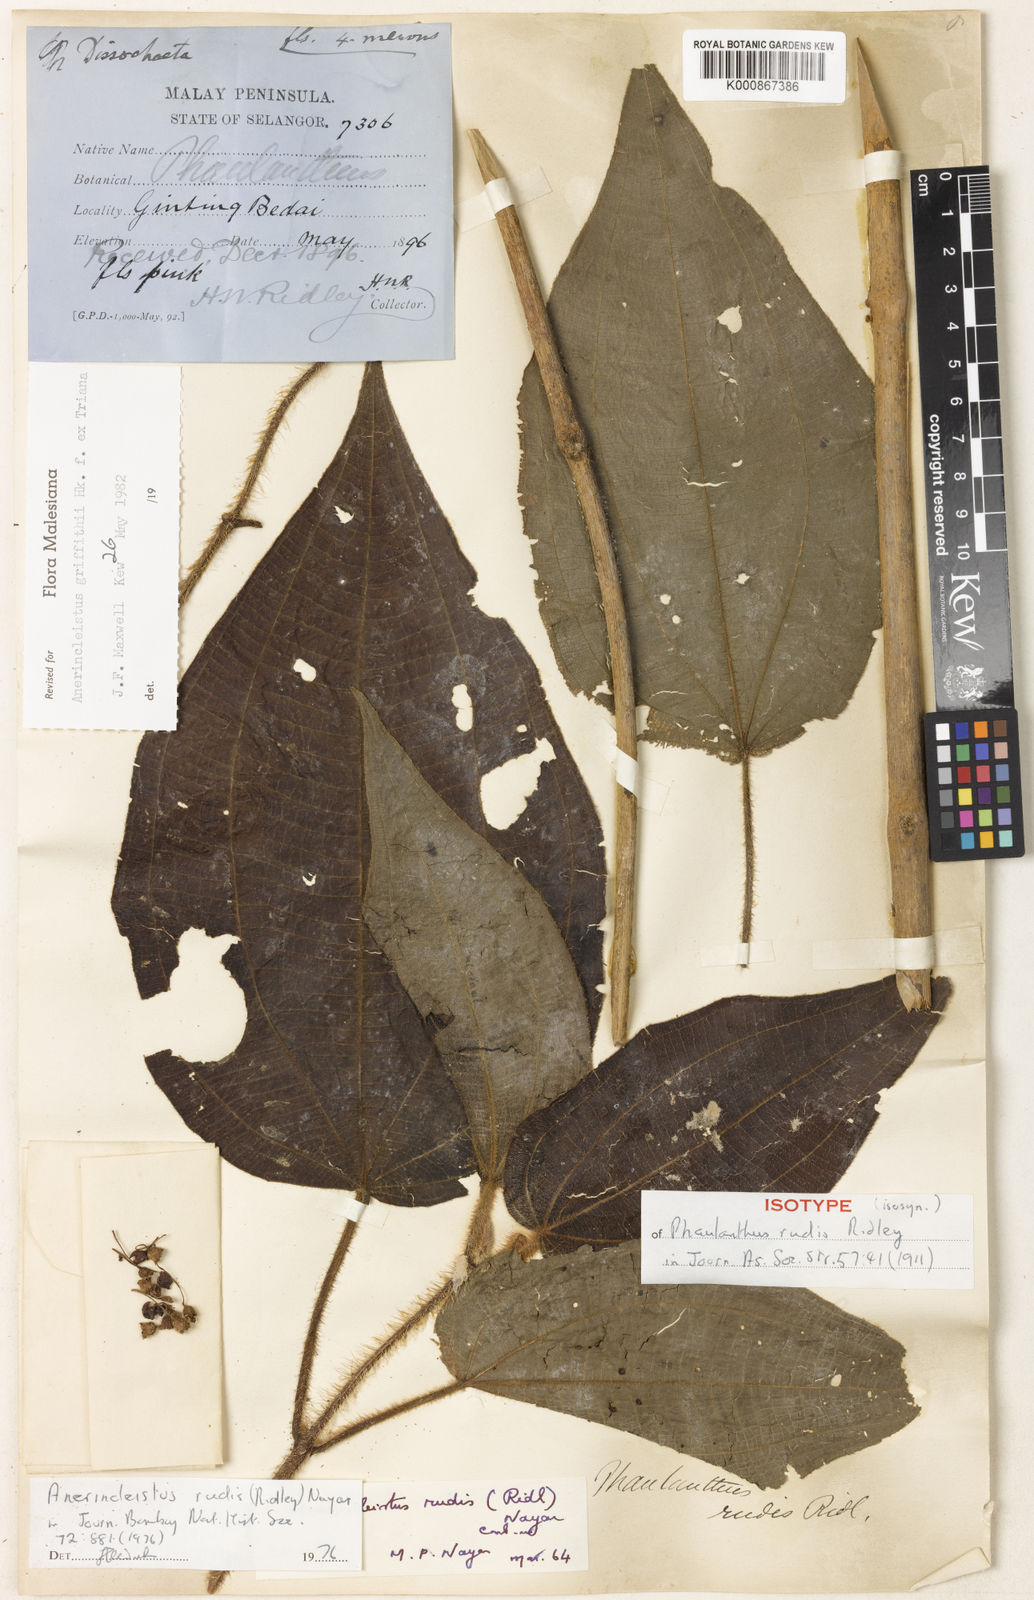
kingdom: Plantae
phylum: Tracheophyta
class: Magnoliopsida
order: Myrtales
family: Melastomataceae
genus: Anerincleistus
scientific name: Anerincleistus griffithii
